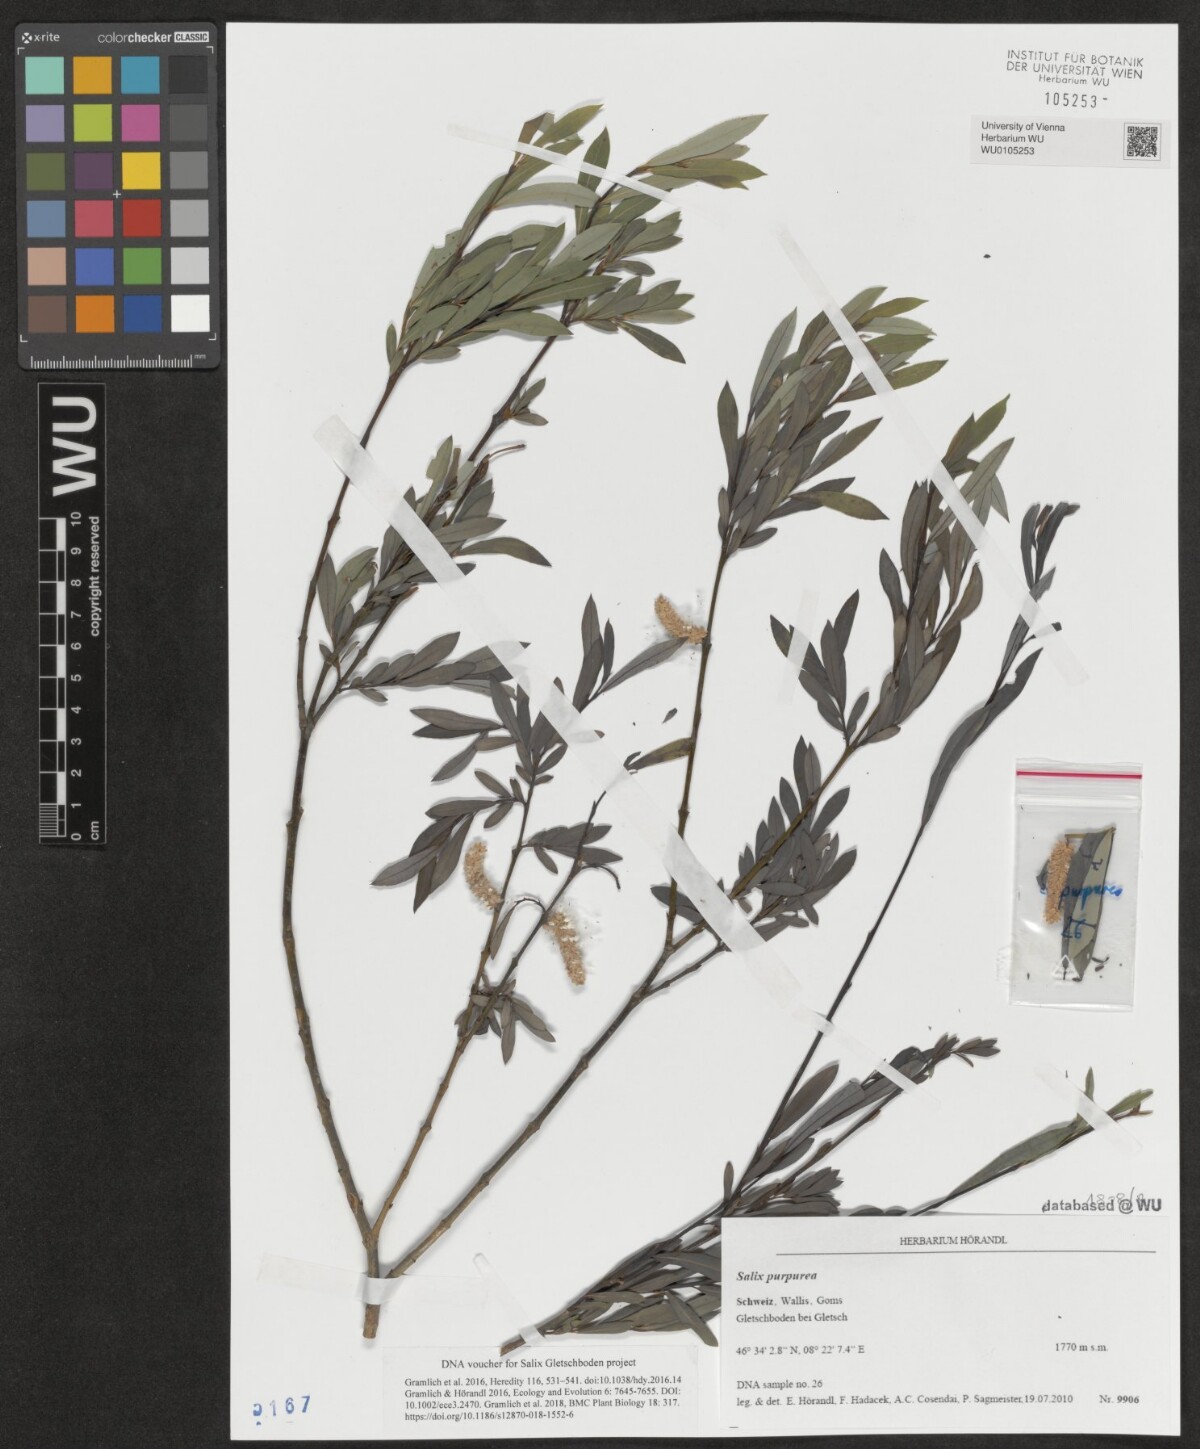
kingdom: Plantae
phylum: Tracheophyta
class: Magnoliopsida
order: Malpighiales
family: Salicaceae
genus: Salix
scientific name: Salix purpurea
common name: Purple willow
